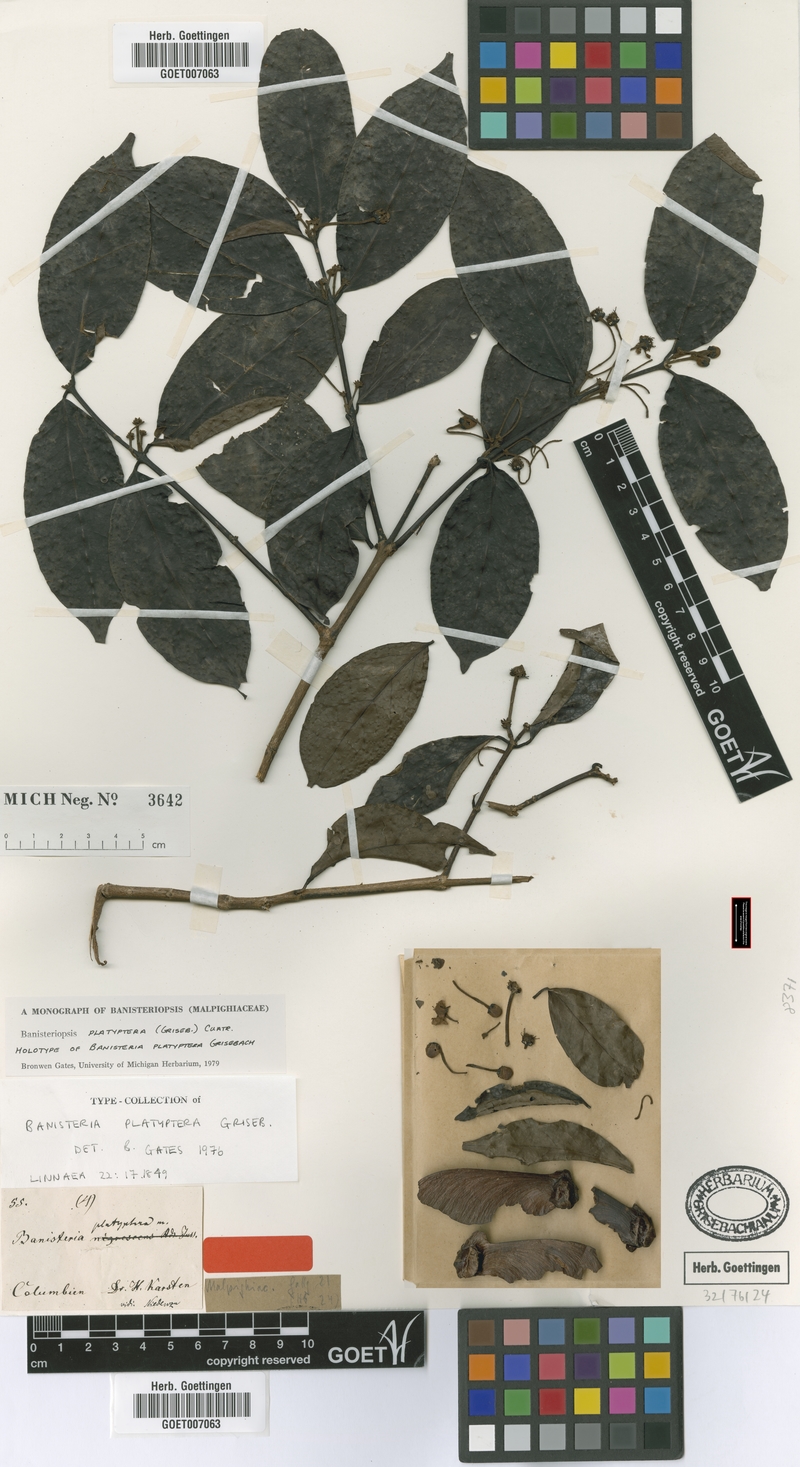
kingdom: Plantae
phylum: Tracheophyta
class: Magnoliopsida
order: Malpighiales
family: Malpighiaceae
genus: Diplopterys
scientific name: Diplopterys platyptera
